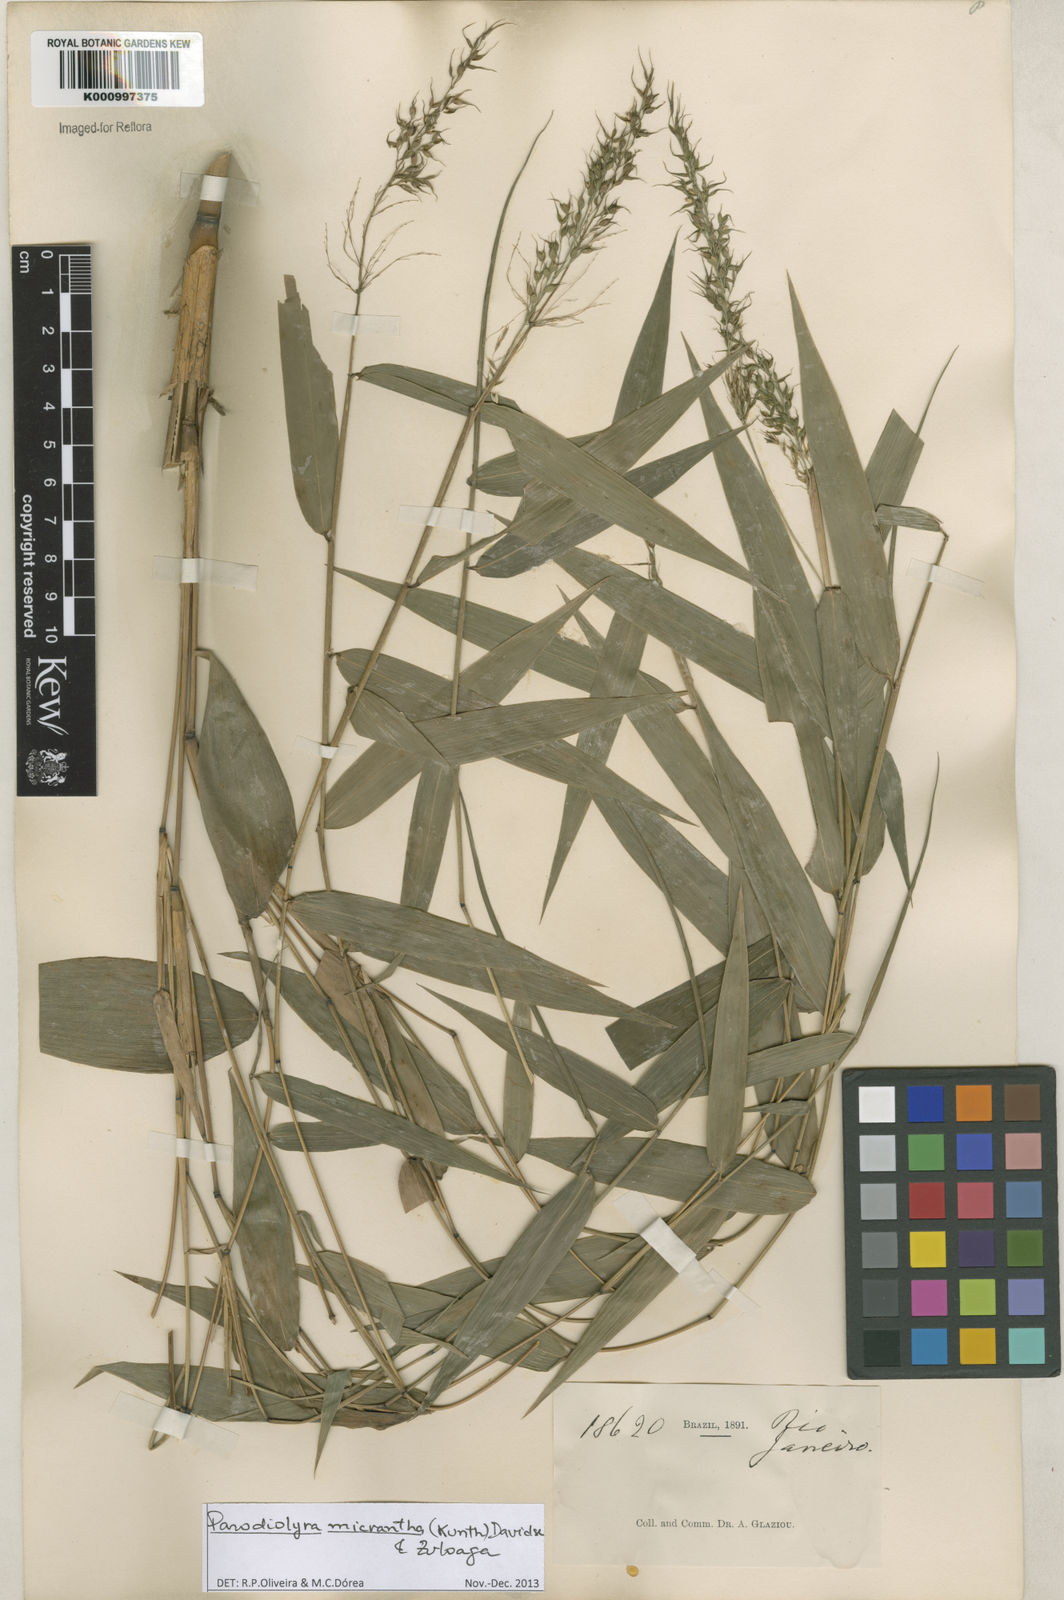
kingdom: Plantae
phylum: Tracheophyta
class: Liliopsida
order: Poales
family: Poaceae
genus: Taquara
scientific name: Taquara micrantha
